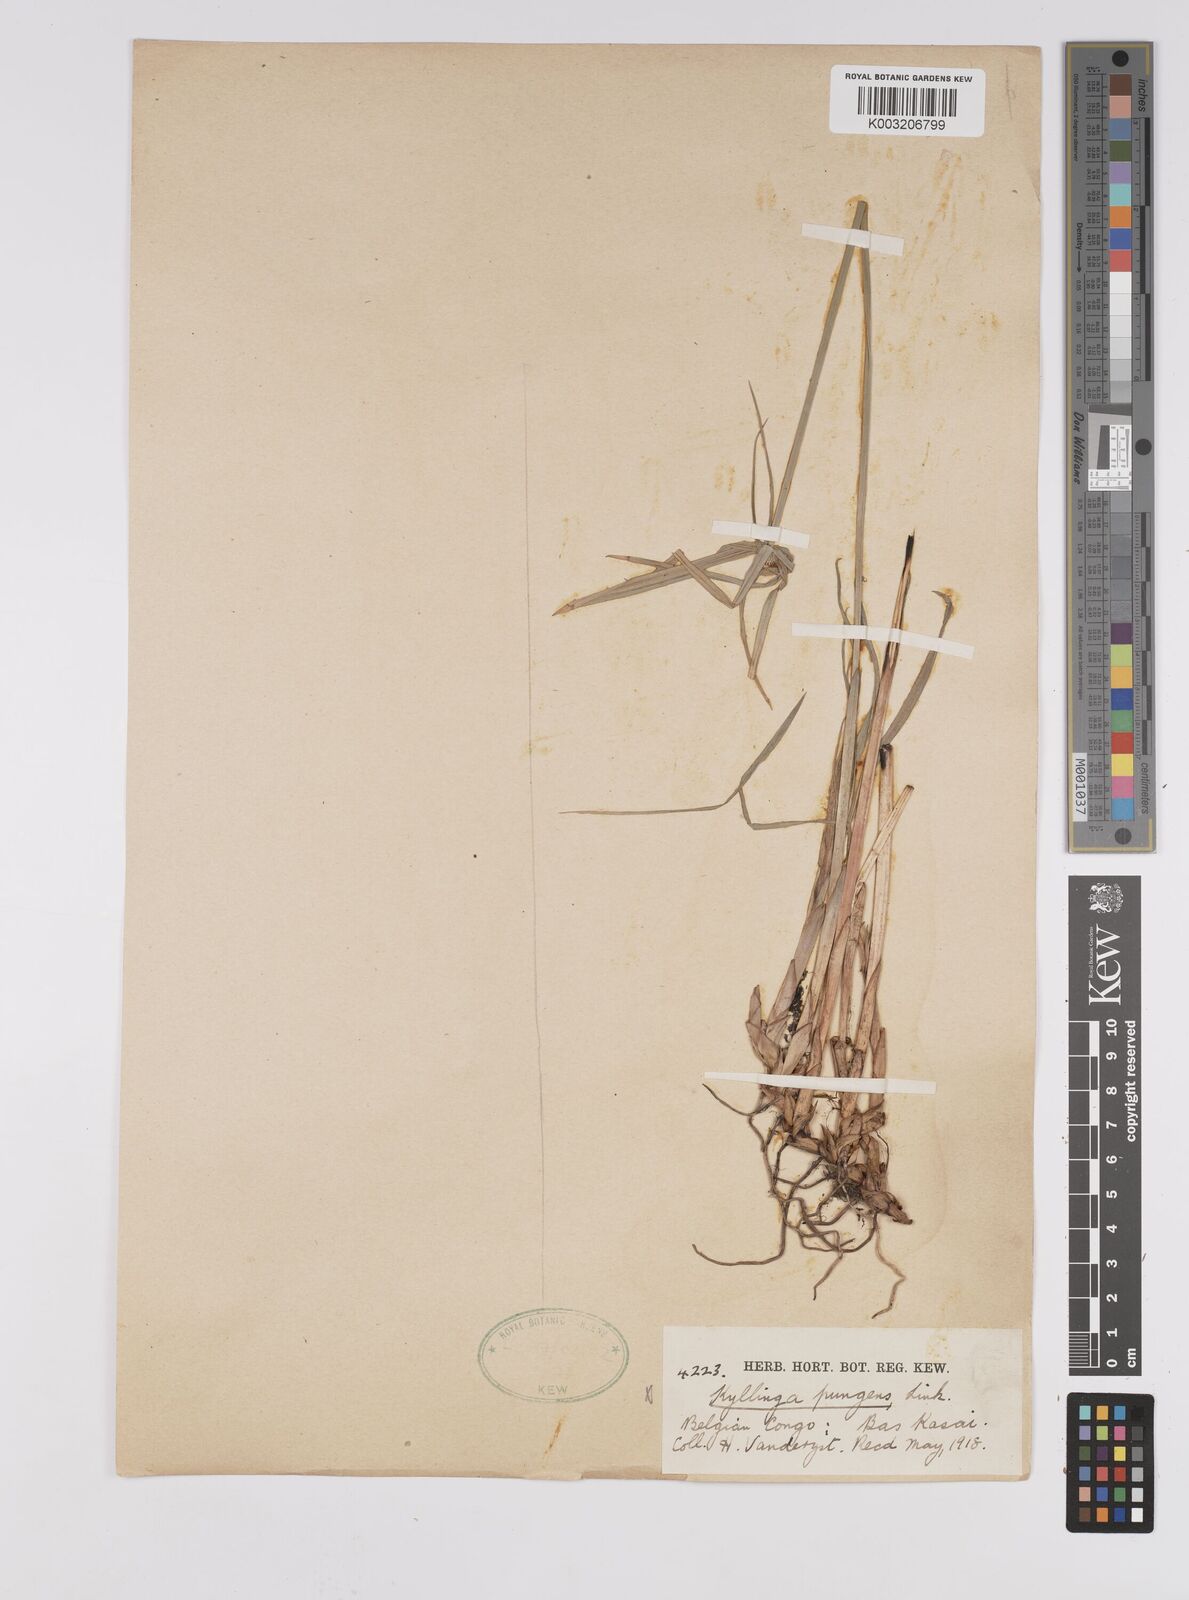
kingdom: Plantae
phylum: Tracheophyta
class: Liliopsida
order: Poales
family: Cyperaceae
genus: Cyperus
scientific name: Cyperus
